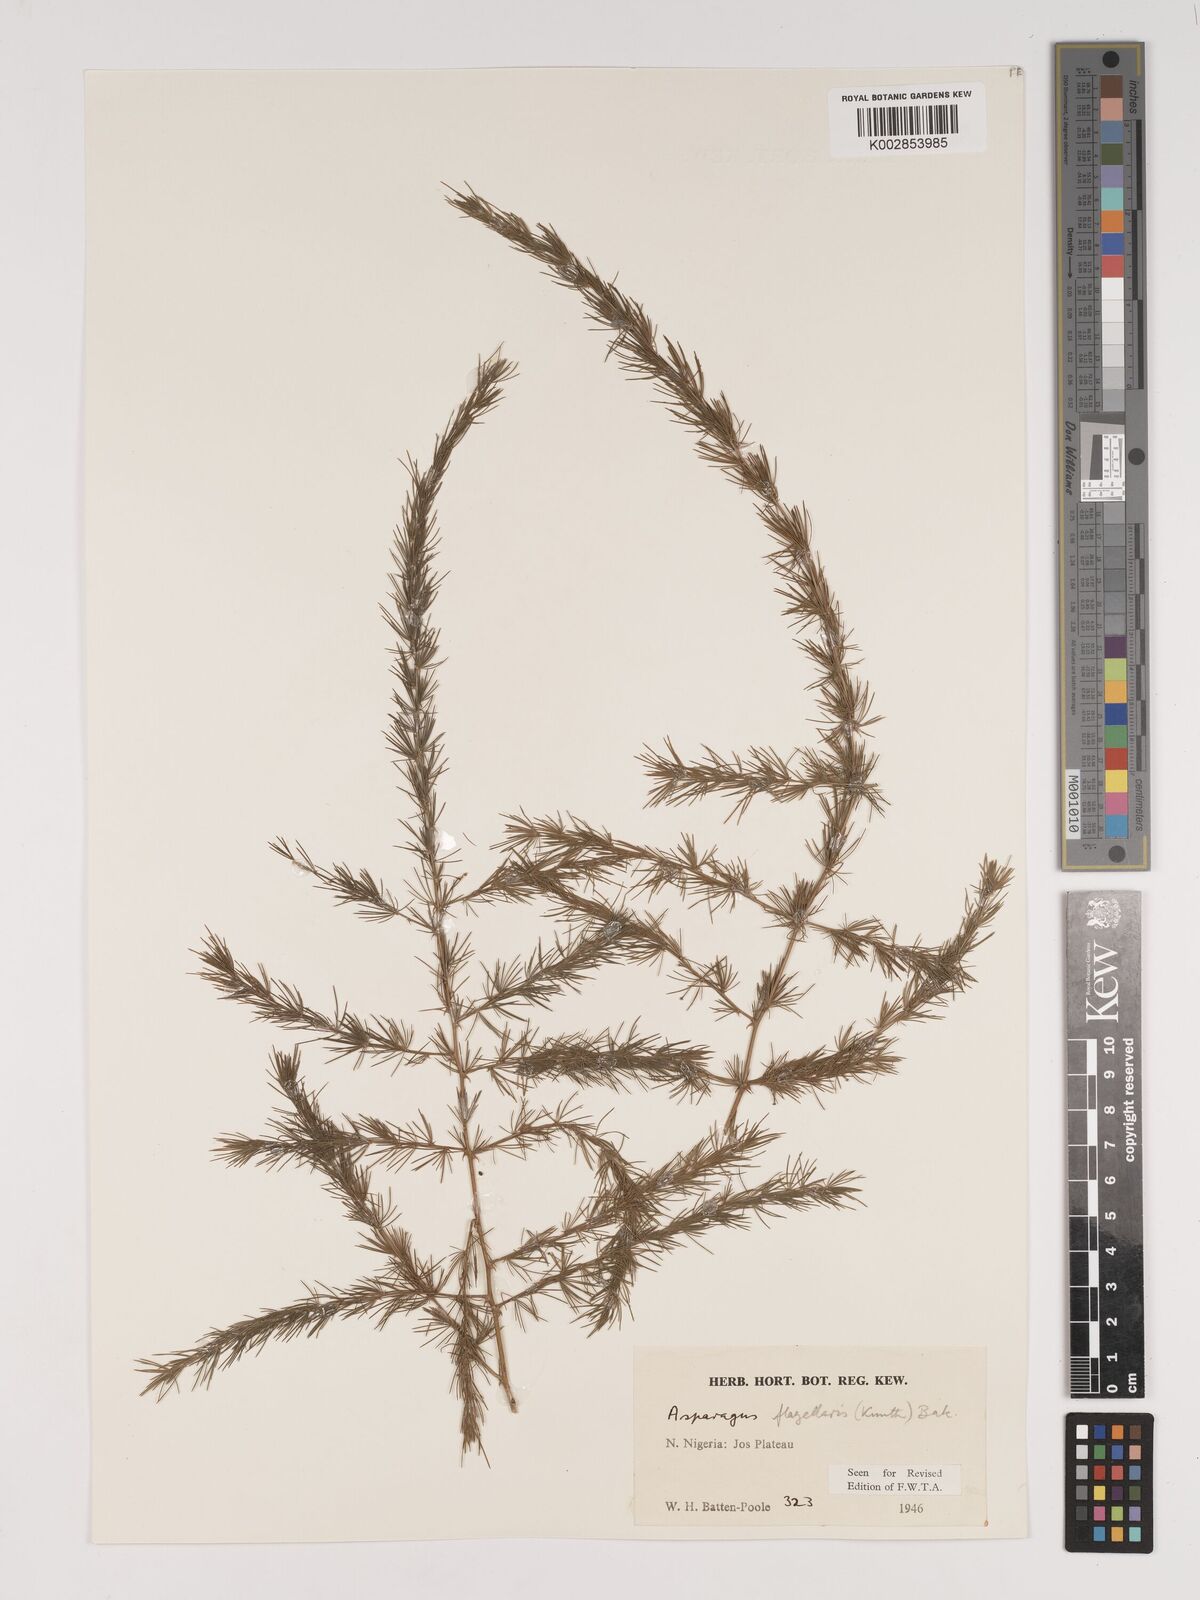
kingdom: Plantae
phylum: Tracheophyta
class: Liliopsida
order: Asparagales
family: Asparagaceae
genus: Asparagus
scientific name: Asparagus
